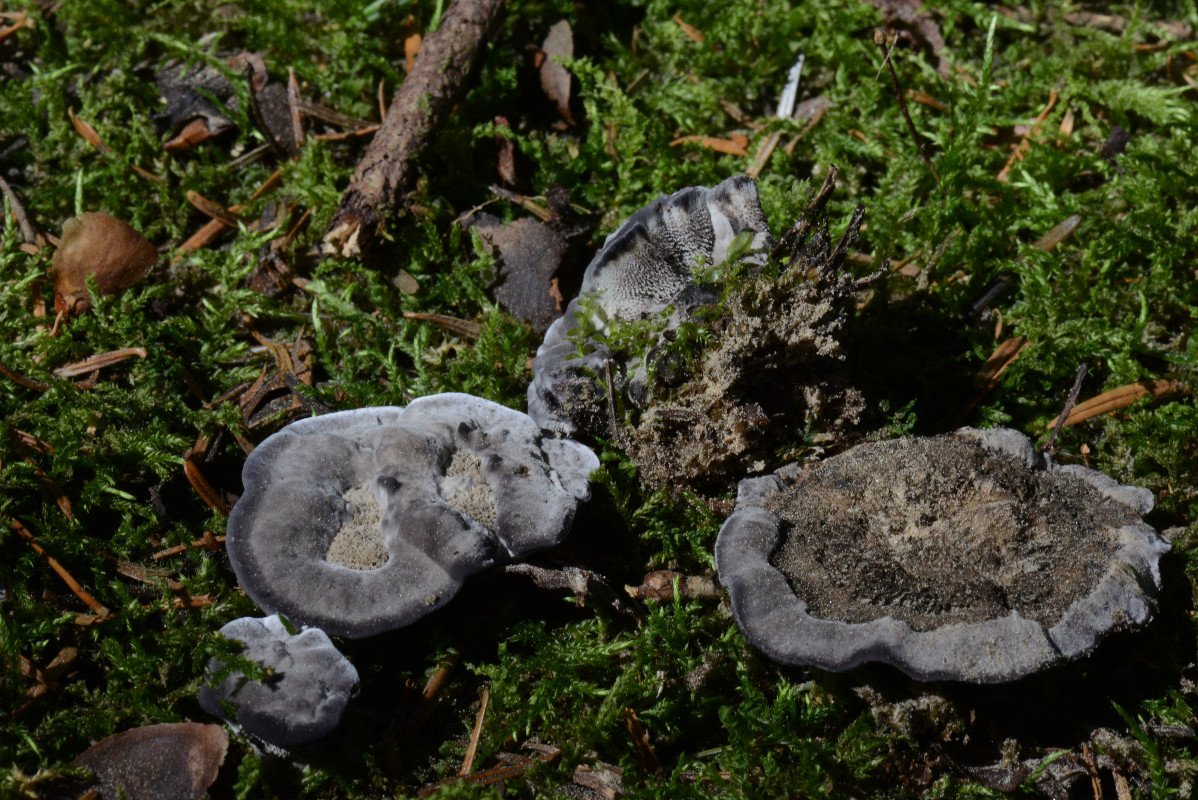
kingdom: Fungi
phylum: Basidiomycota
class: Agaricomycetes
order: Thelephorales
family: Thelephoraceae
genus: Phellodon
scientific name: Phellodon
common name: mørk duftpigsvamp
